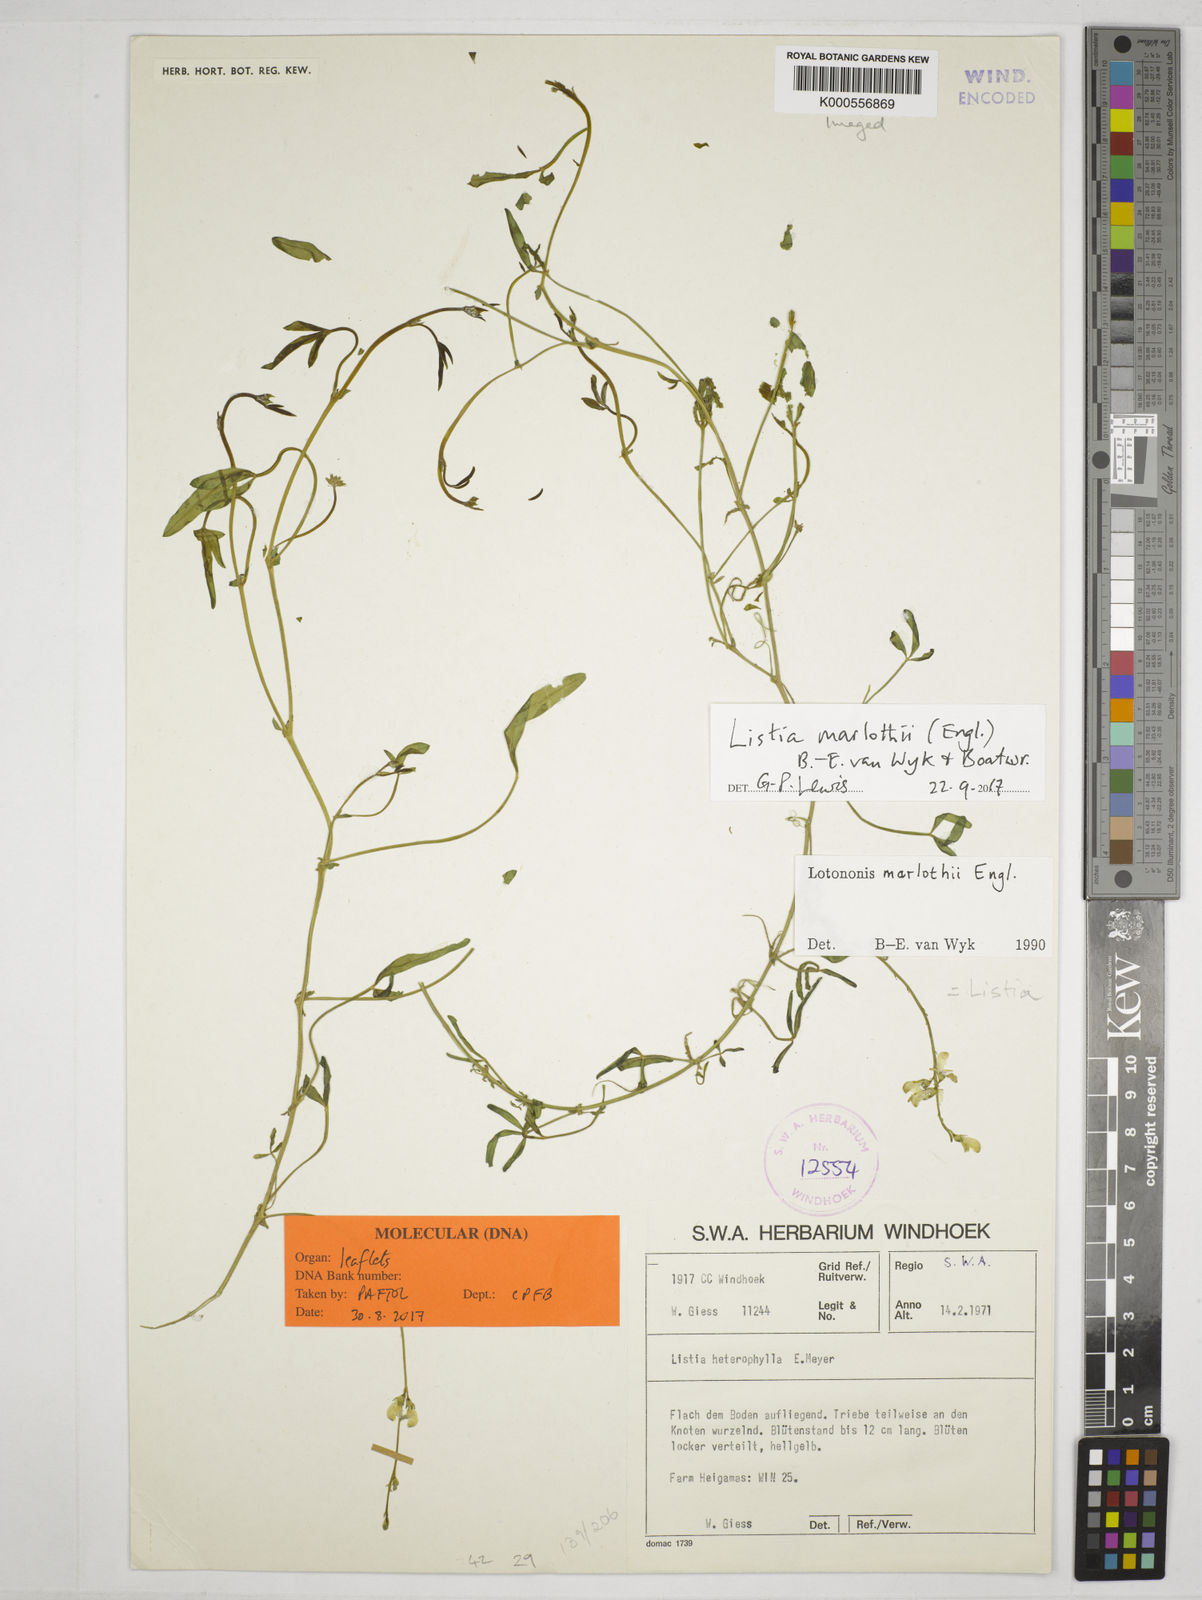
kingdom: Plantae
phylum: Tracheophyta
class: Magnoliopsida
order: Fabales
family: Fabaceae
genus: Listia
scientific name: Listia marlothii
